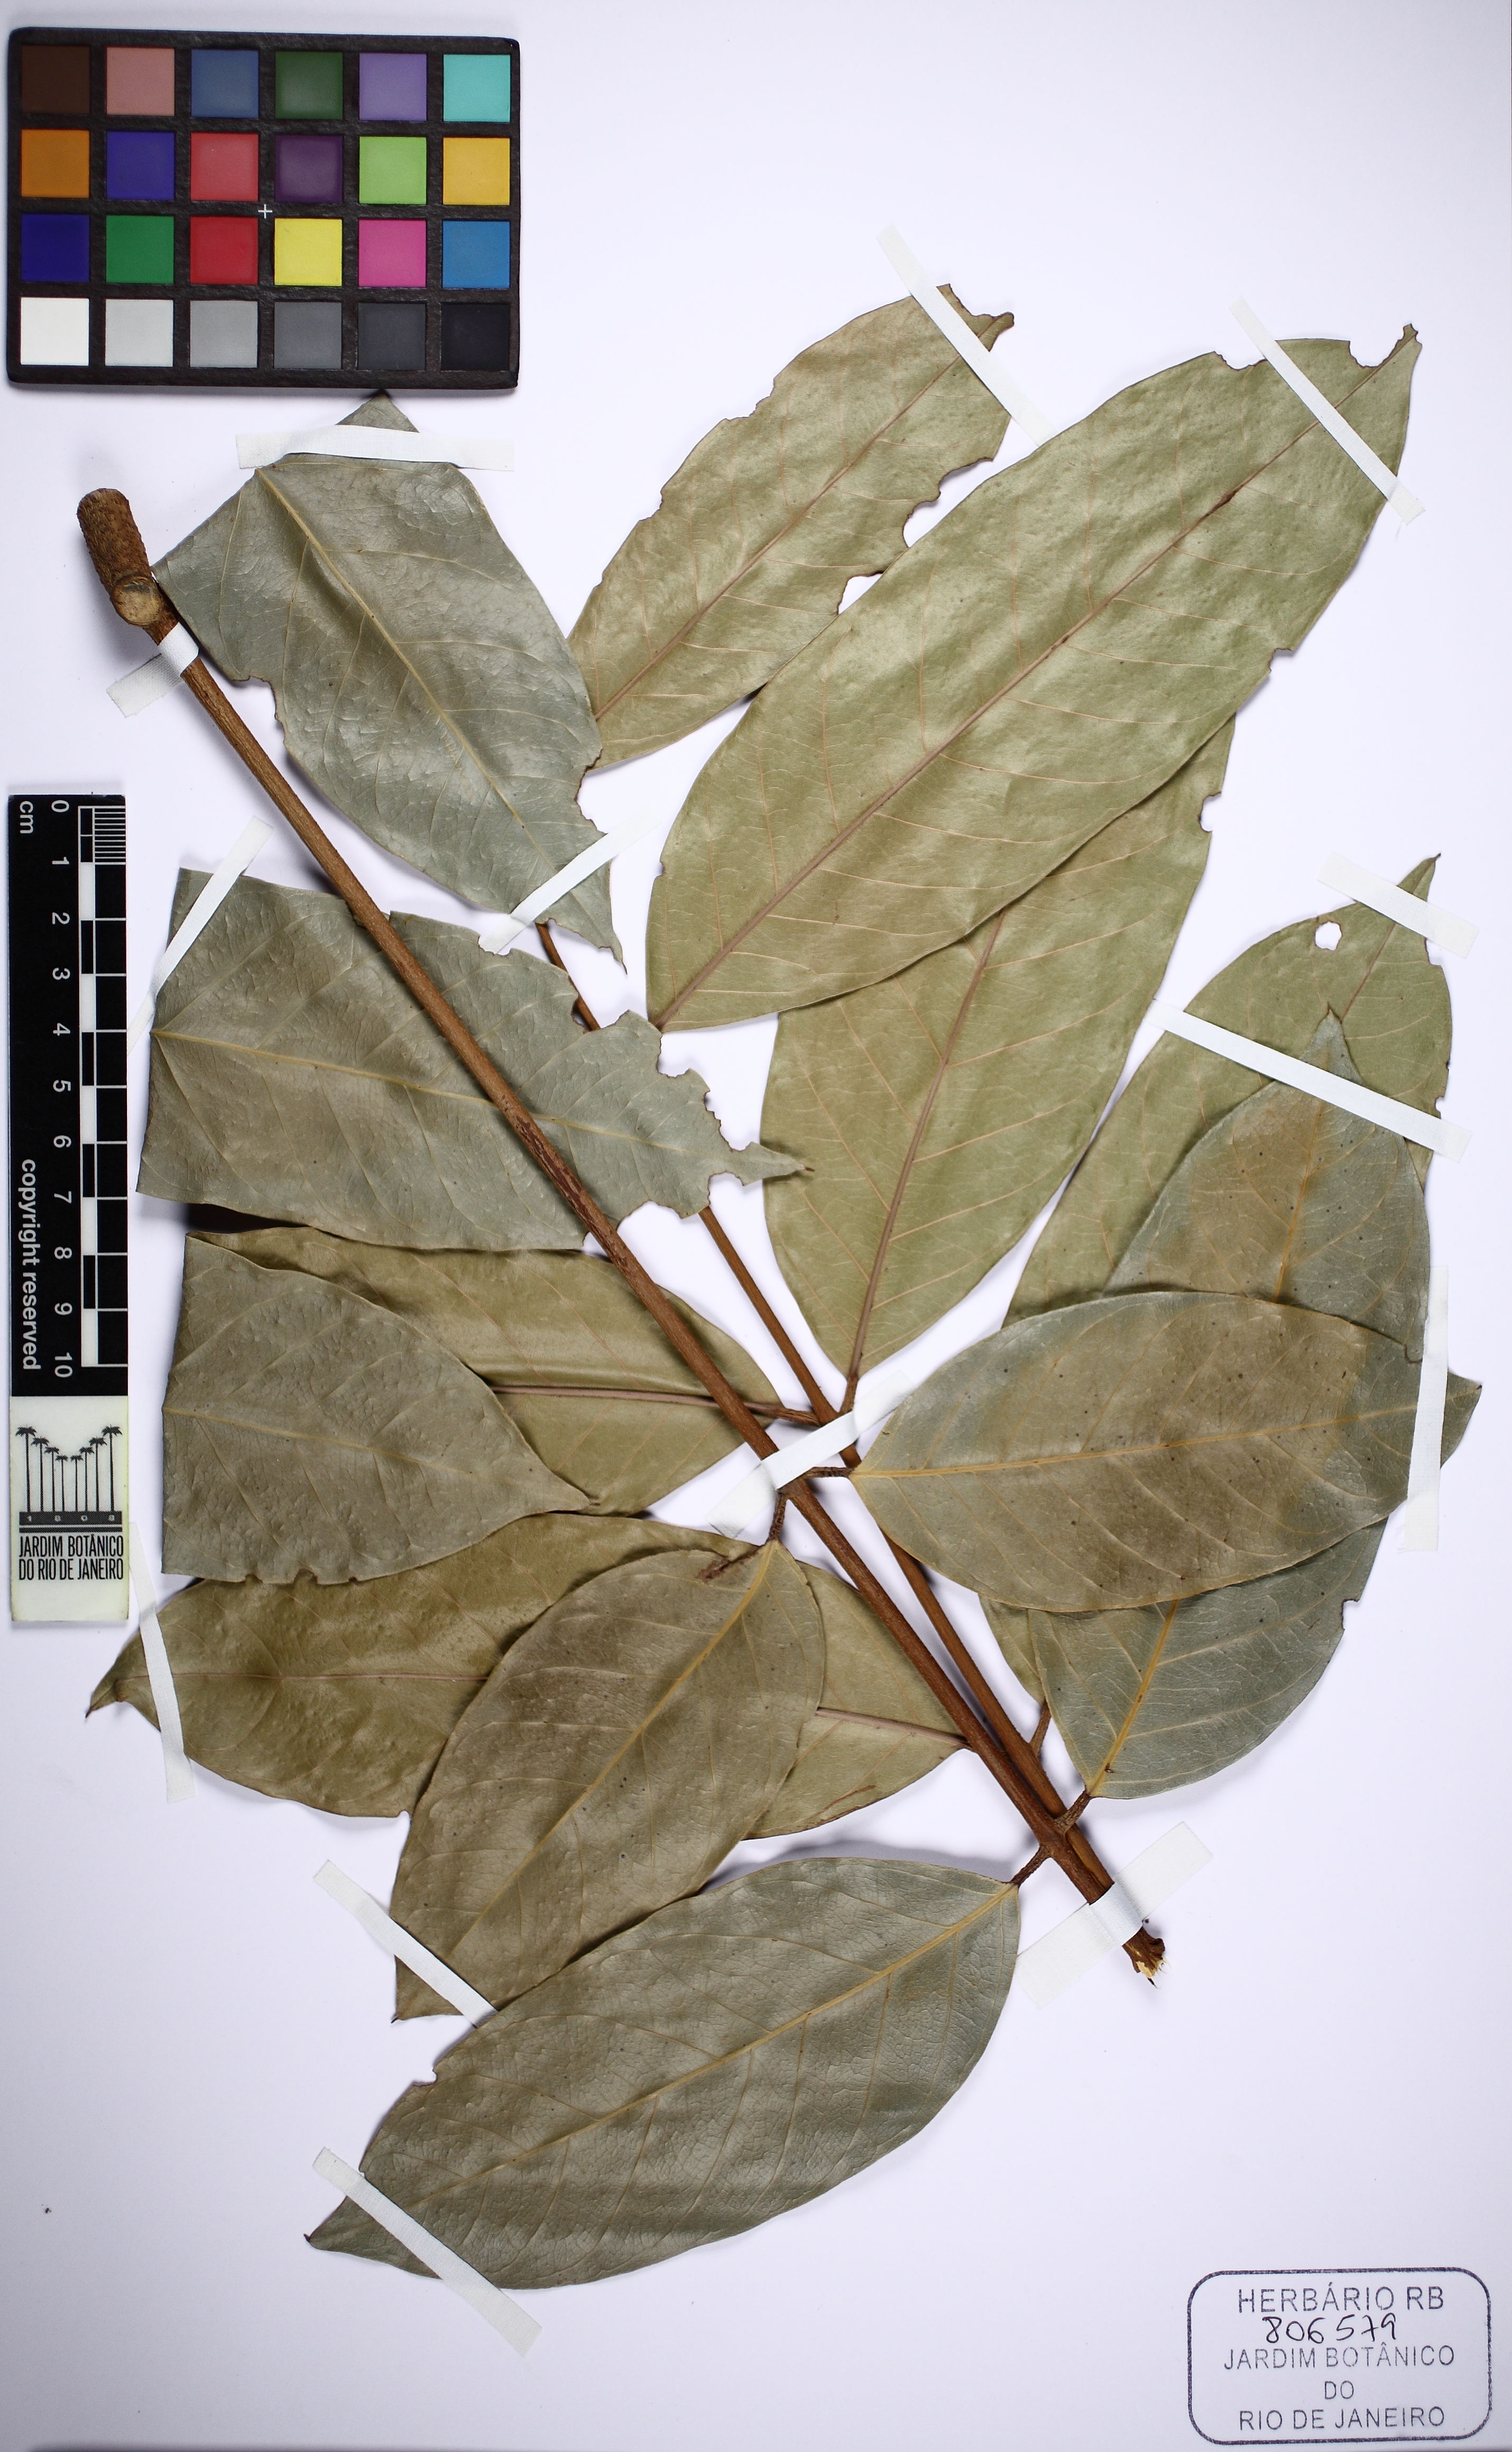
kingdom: Plantae
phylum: Tracheophyta
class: Magnoliopsida
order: Sapindales
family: Meliaceae
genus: Guarea
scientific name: Guarea macrophylla
